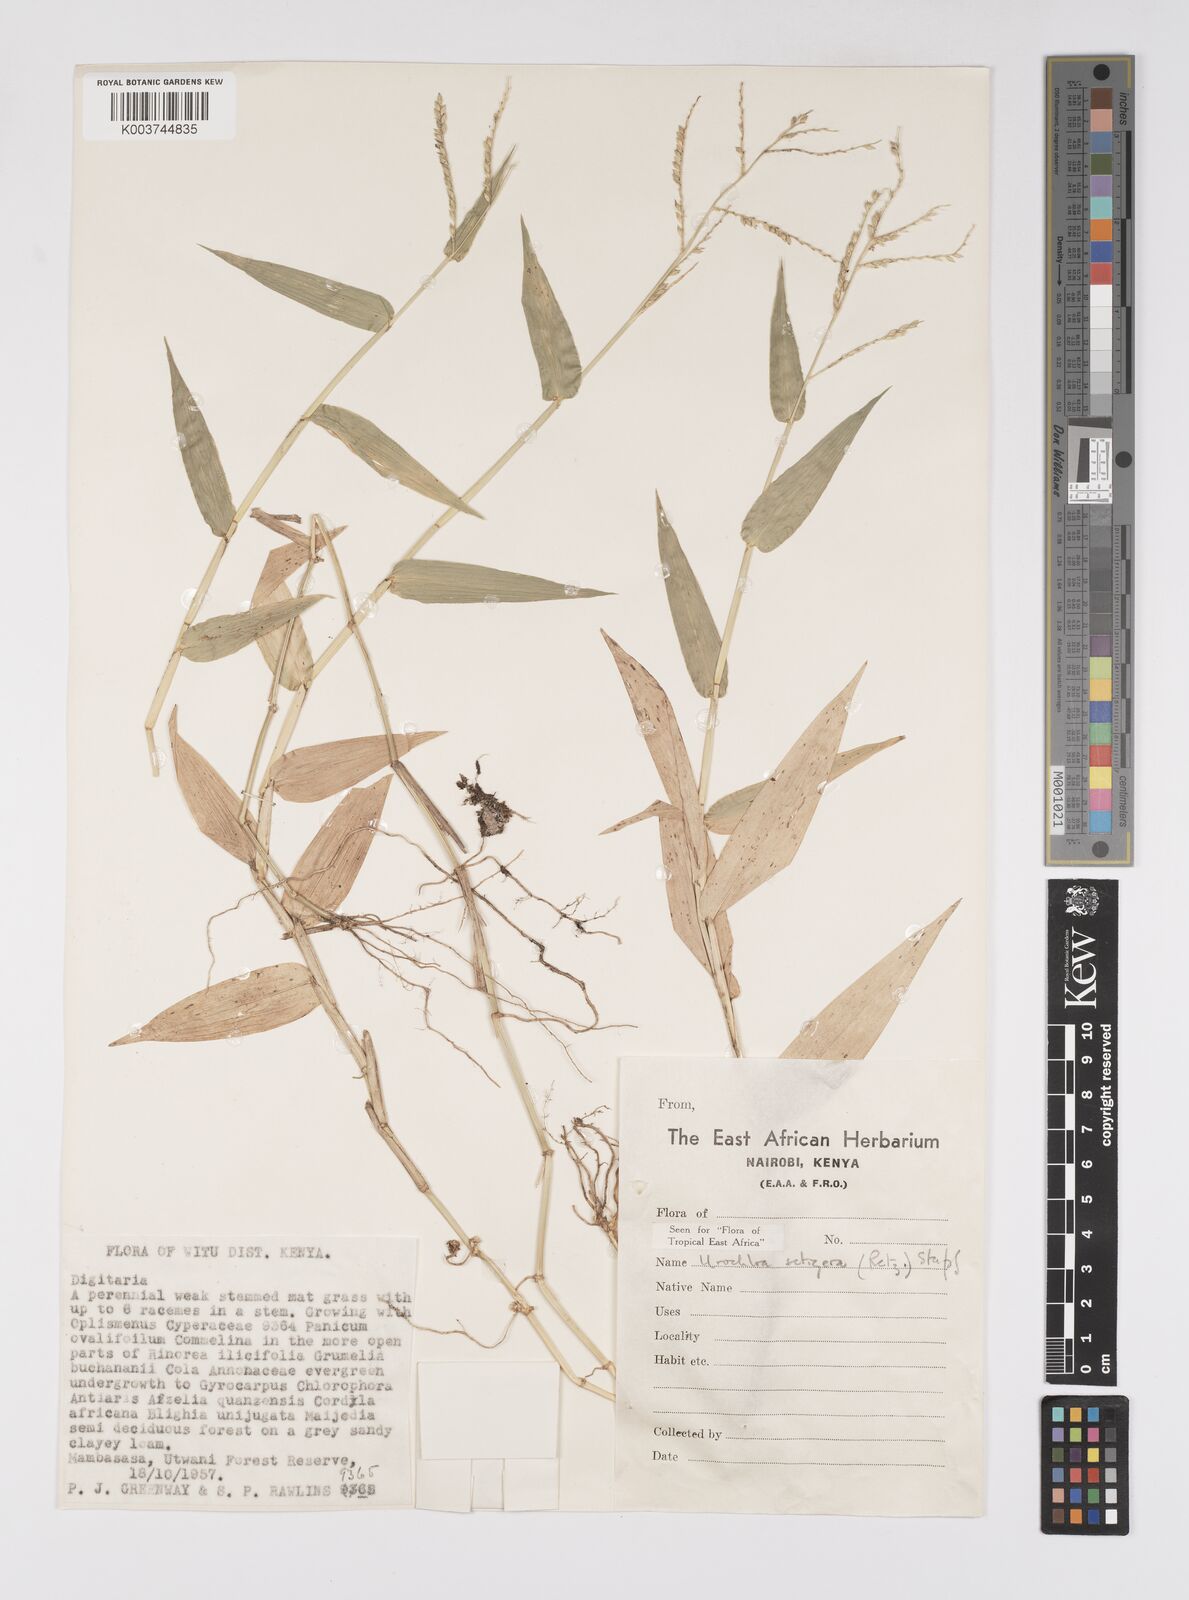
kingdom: Plantae
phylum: Tracheophyta
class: Liliopsida
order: Poales
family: Poaceae
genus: Urochloa
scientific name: Urochloa trichopodioides
